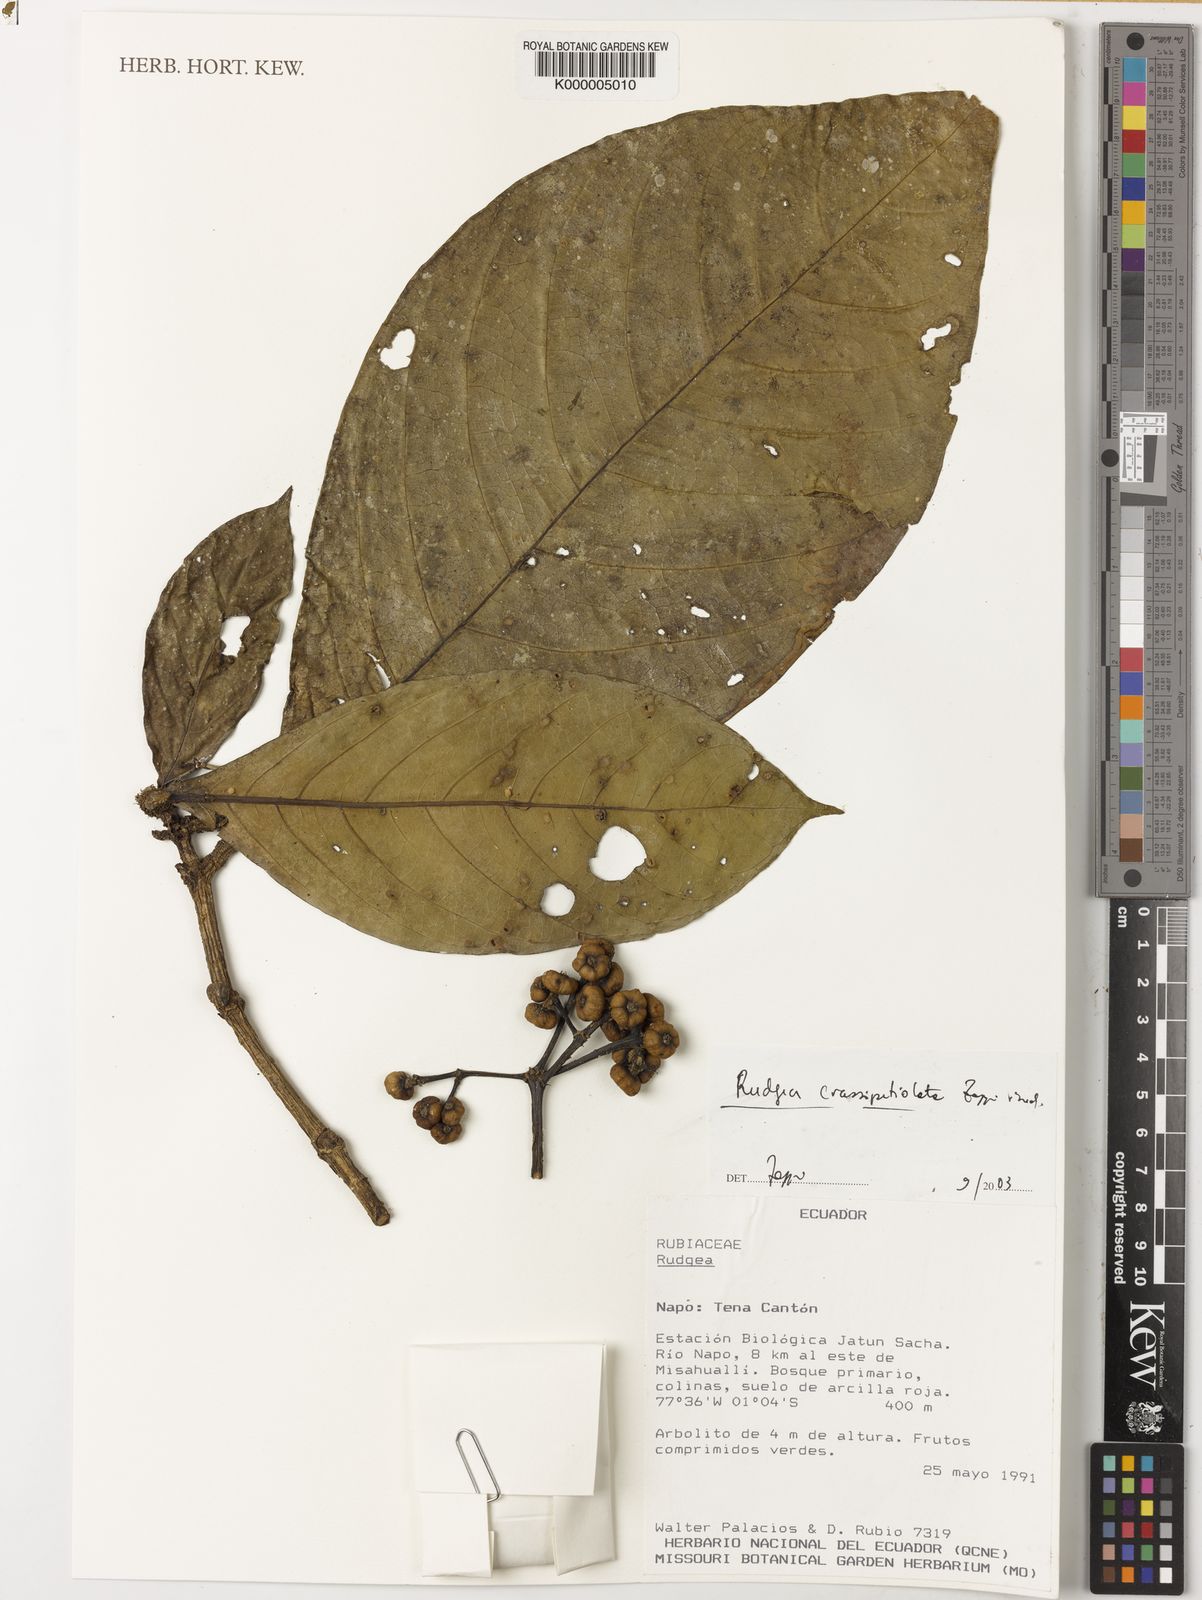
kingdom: Plantae
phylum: Tracheophyta
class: Magnoliopsida
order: Gentianales
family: Rubiaceae
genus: Rudgea
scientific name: Rudgea crassipetiolata
